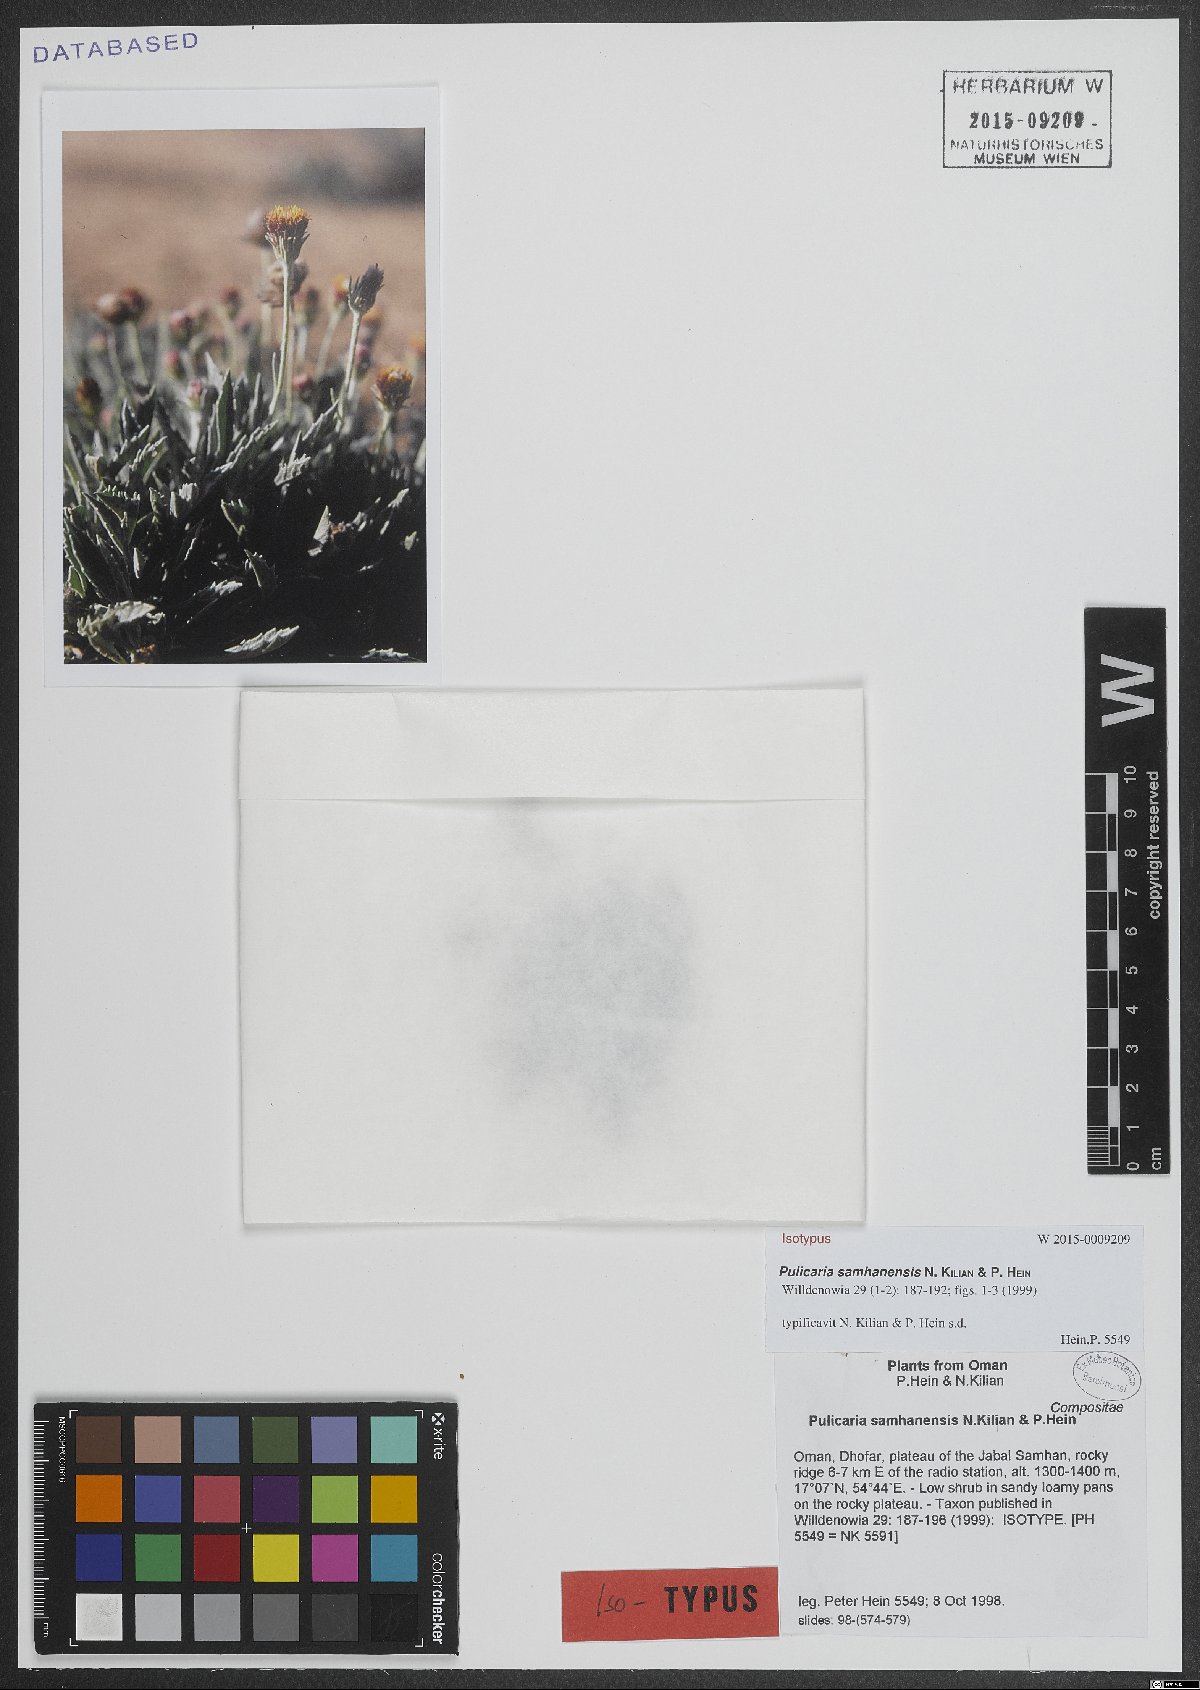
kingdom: Plantae
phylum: Tracheophyta
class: Magnoliopsida
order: Asterales
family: Asteraceae
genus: Pulicaria
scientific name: Pulicaria samhanensis
